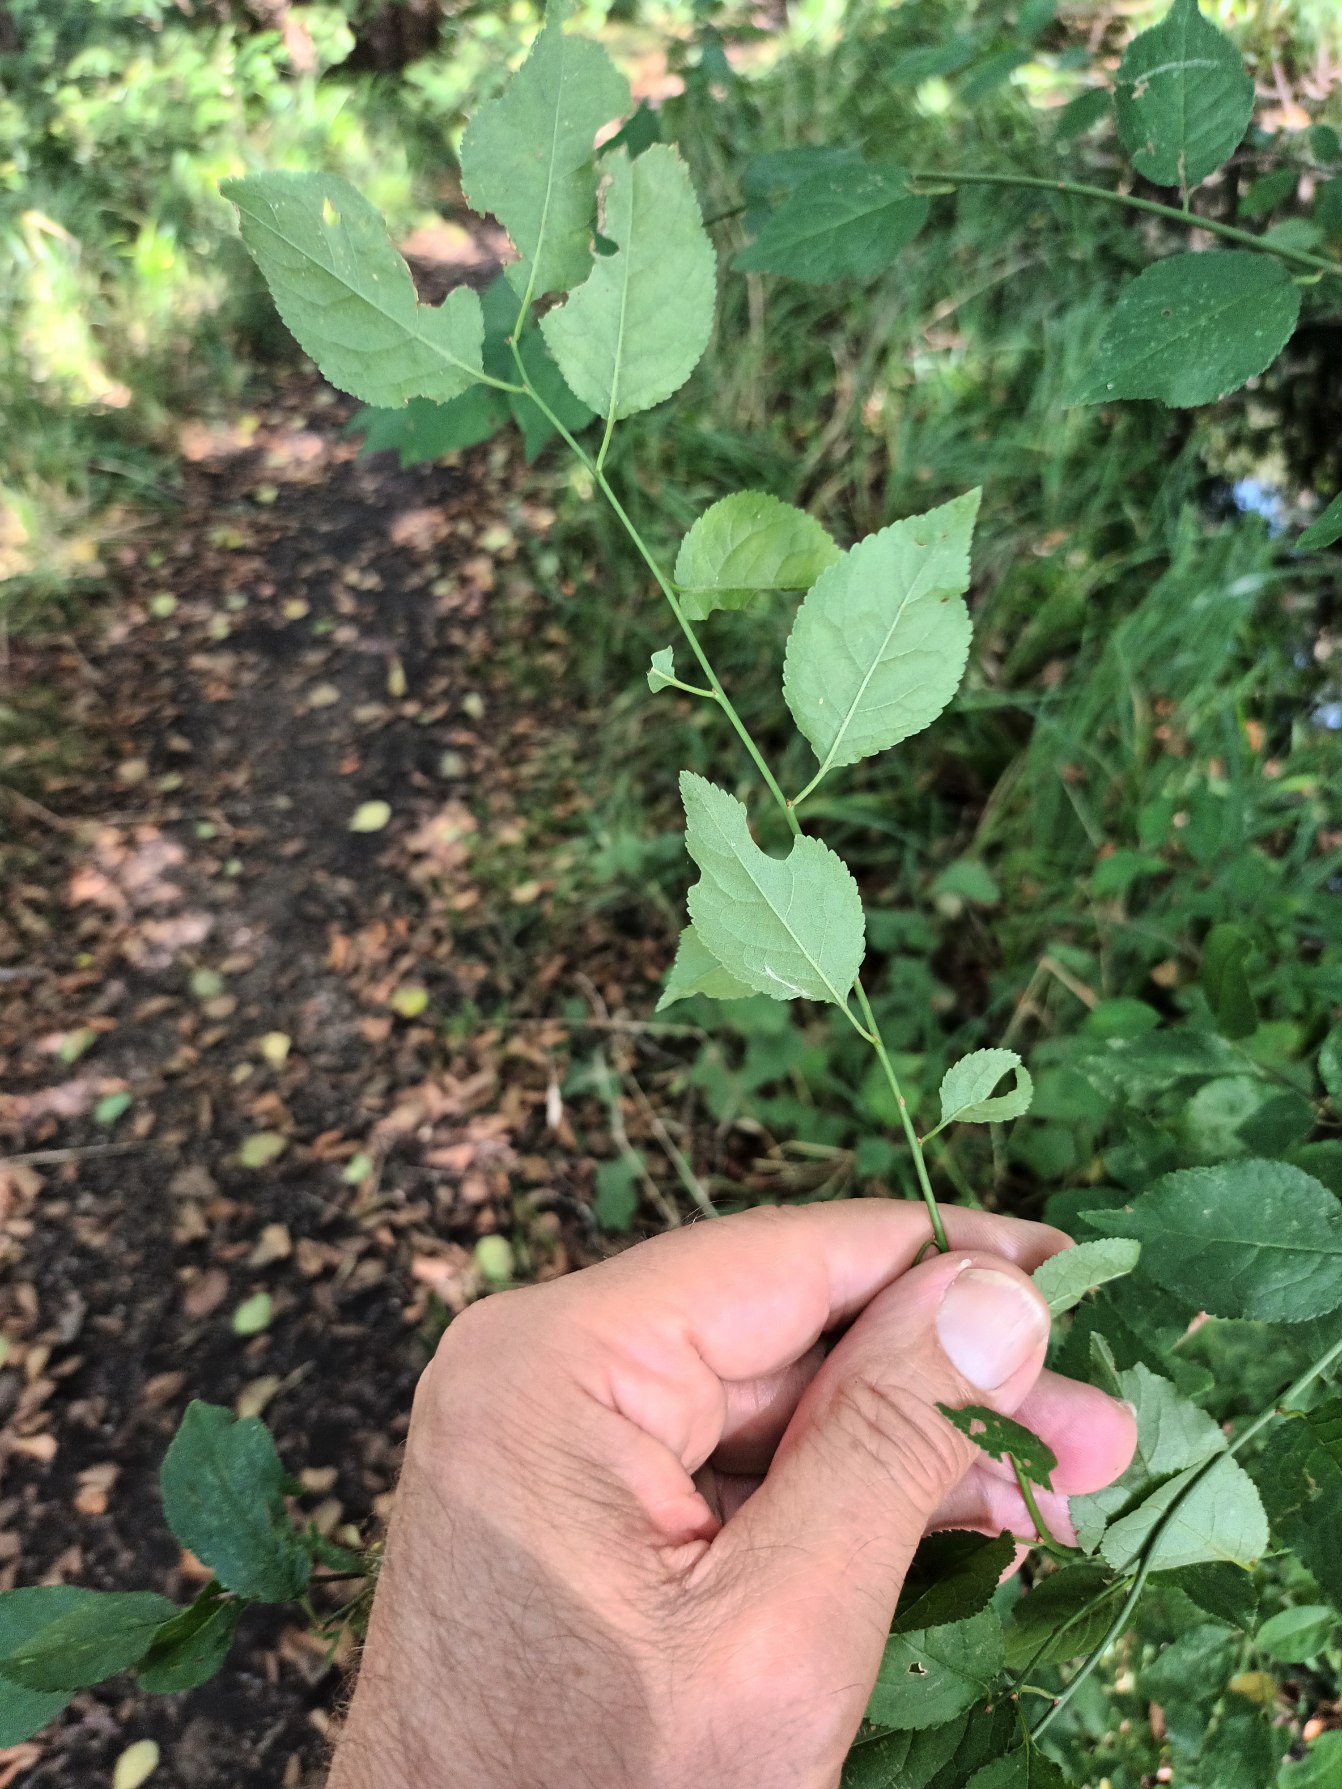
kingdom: Plantae
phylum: Tracheophyta
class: Magnoliopsida
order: Rosales
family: Rosaceae
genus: Prunus
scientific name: Prunus cerasifera
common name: Mirabel
